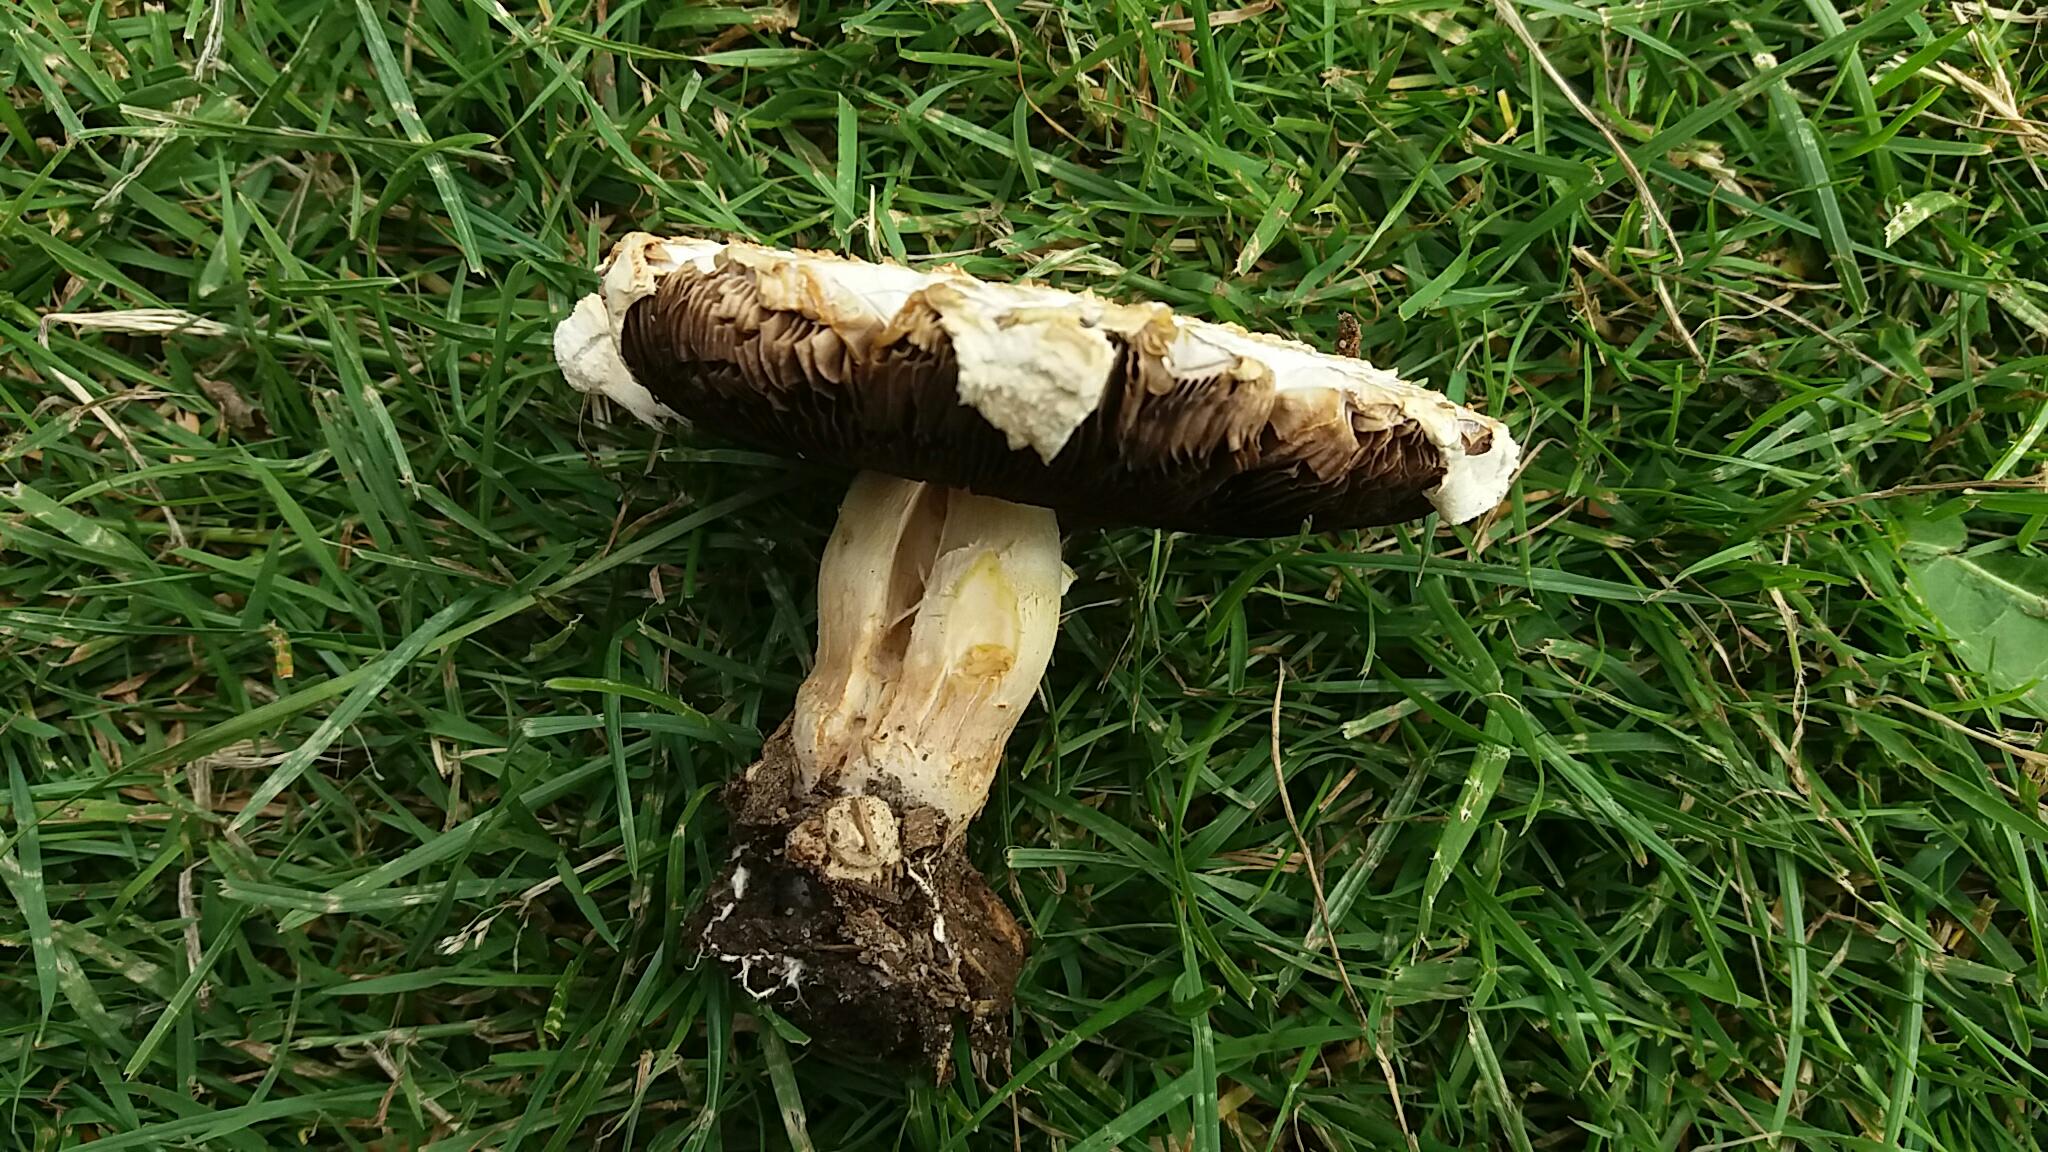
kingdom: Fungi
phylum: Basidiomycota
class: Agaricomycetes
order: Agaricales
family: Agaricaceae
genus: Agaricus
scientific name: Agaricus
